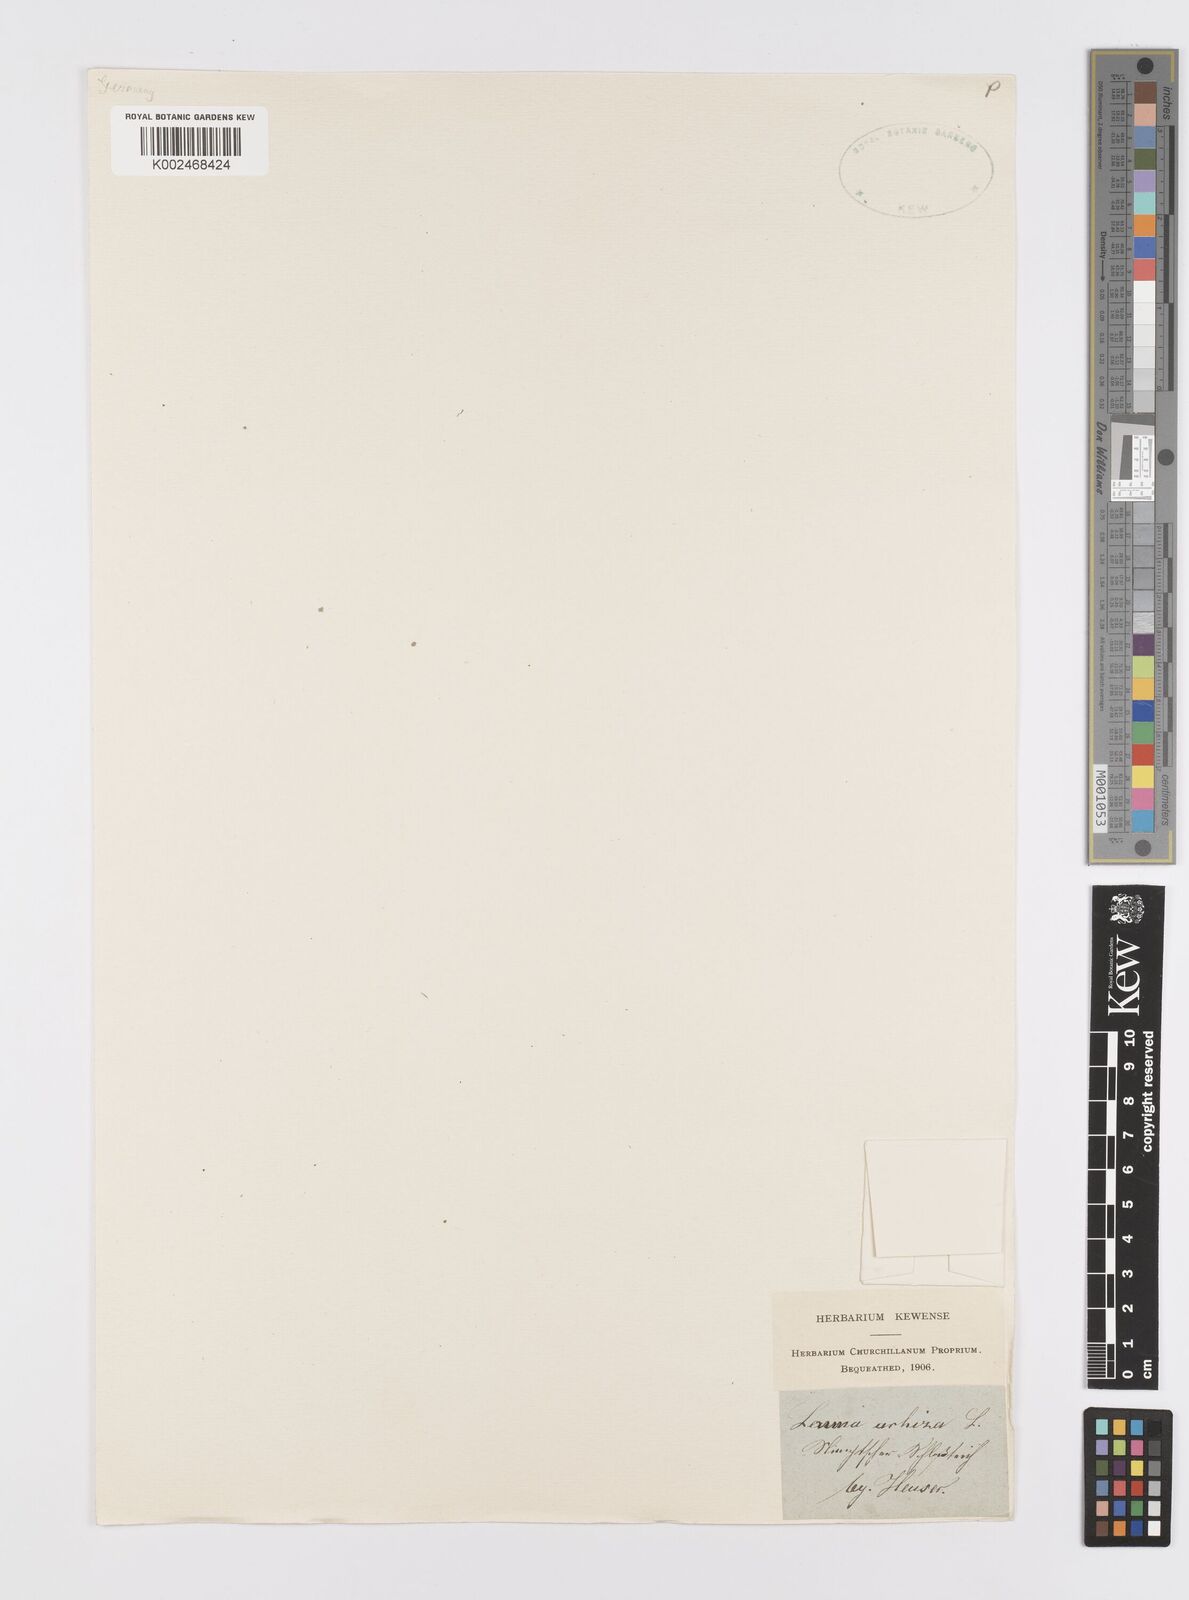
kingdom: Plantae
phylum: Tracheophyta
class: Liliopsida
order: Alismatales
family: Araceae
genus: Wolffia
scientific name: Wolffia arrhiza
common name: Rootless duckweed
